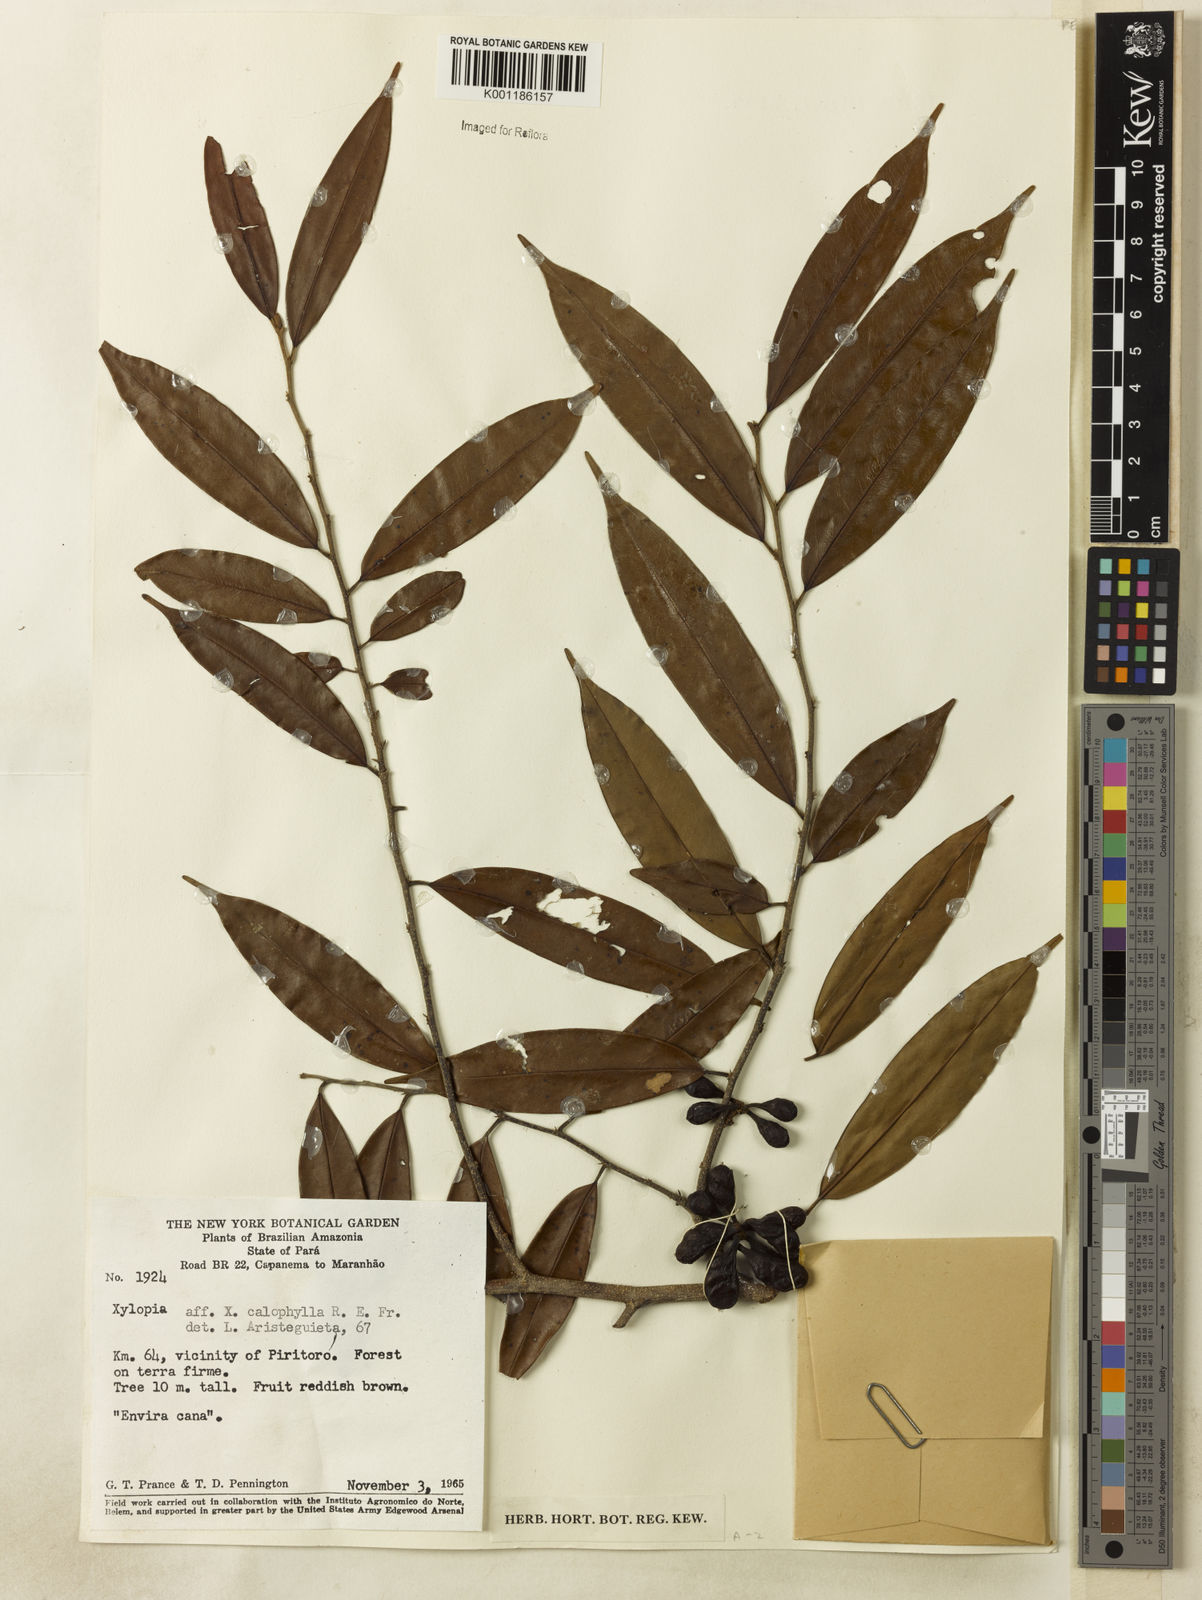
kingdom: Plantae
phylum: Tracheophyta
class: Magnoliopsida
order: Magnoliales
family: Annonaceae
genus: Xylopia
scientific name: Xylopia calophylla
